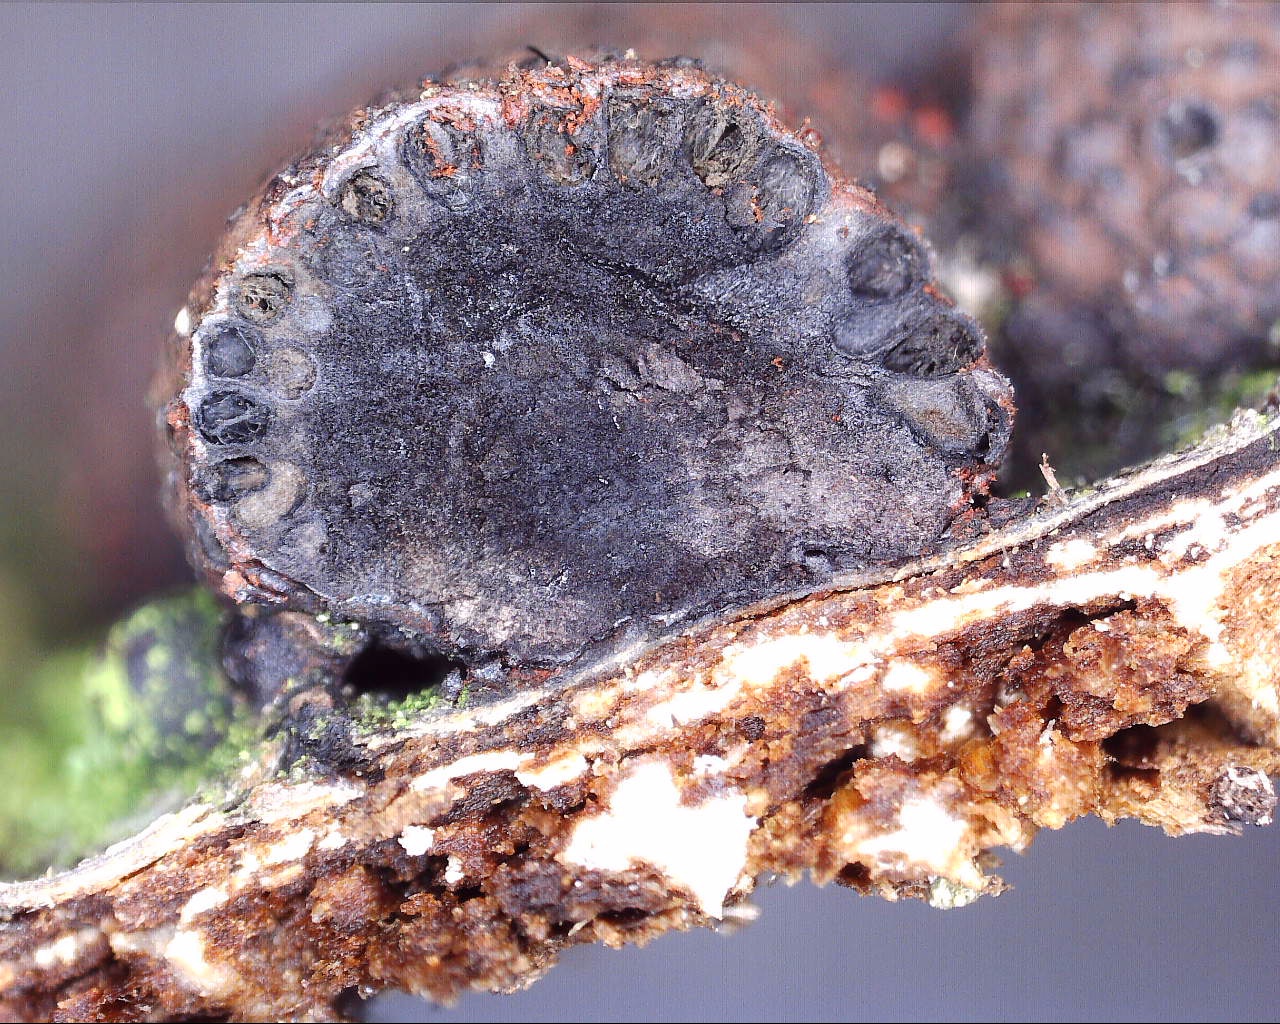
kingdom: Fungi
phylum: Ascomycota
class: Sordariomycetes
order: Xylariales
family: Hypoxylaceae
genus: Hypoxylon
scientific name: Hypoxylon fragiforme
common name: kuljordbær
